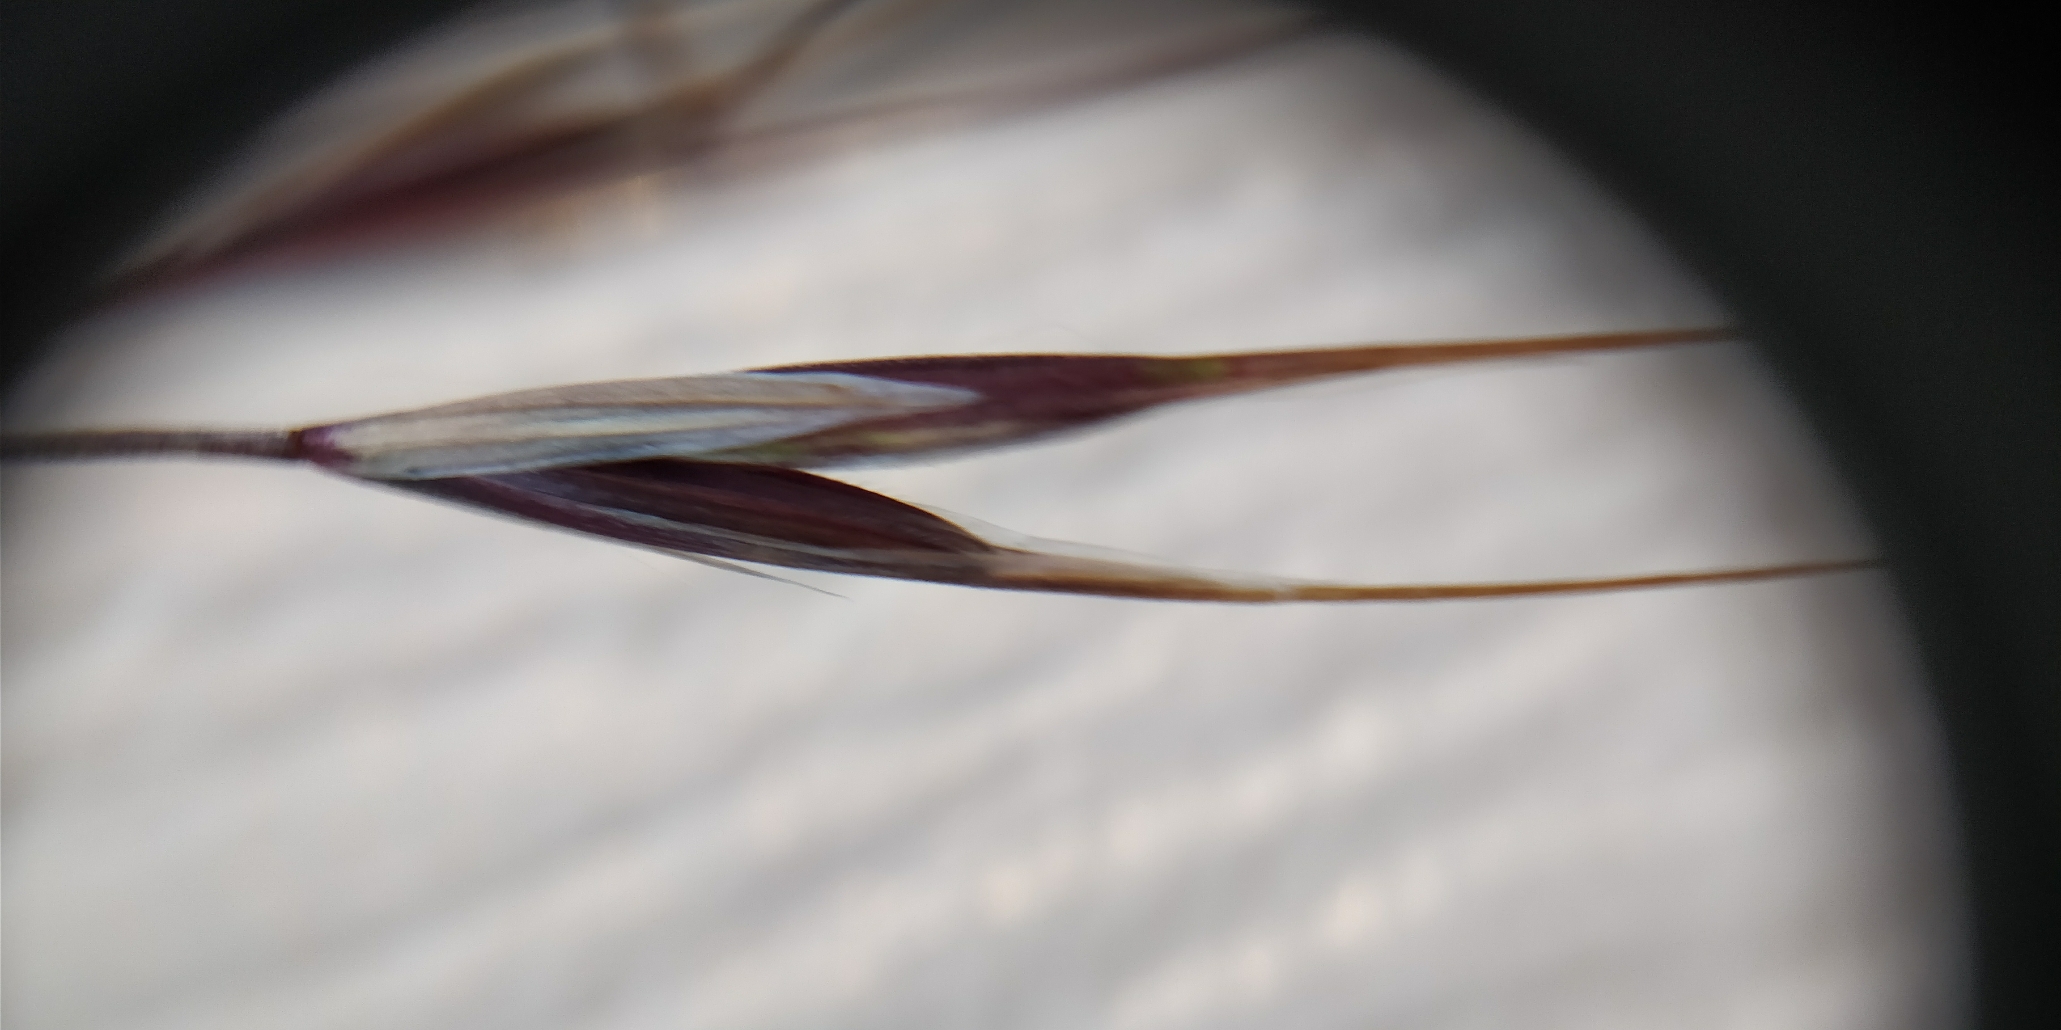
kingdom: Plantae
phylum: Tracheophyta
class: Liliopsida
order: Poales
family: Poaceae
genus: Bromus
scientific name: Bromus sterilis
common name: Gold hejre
